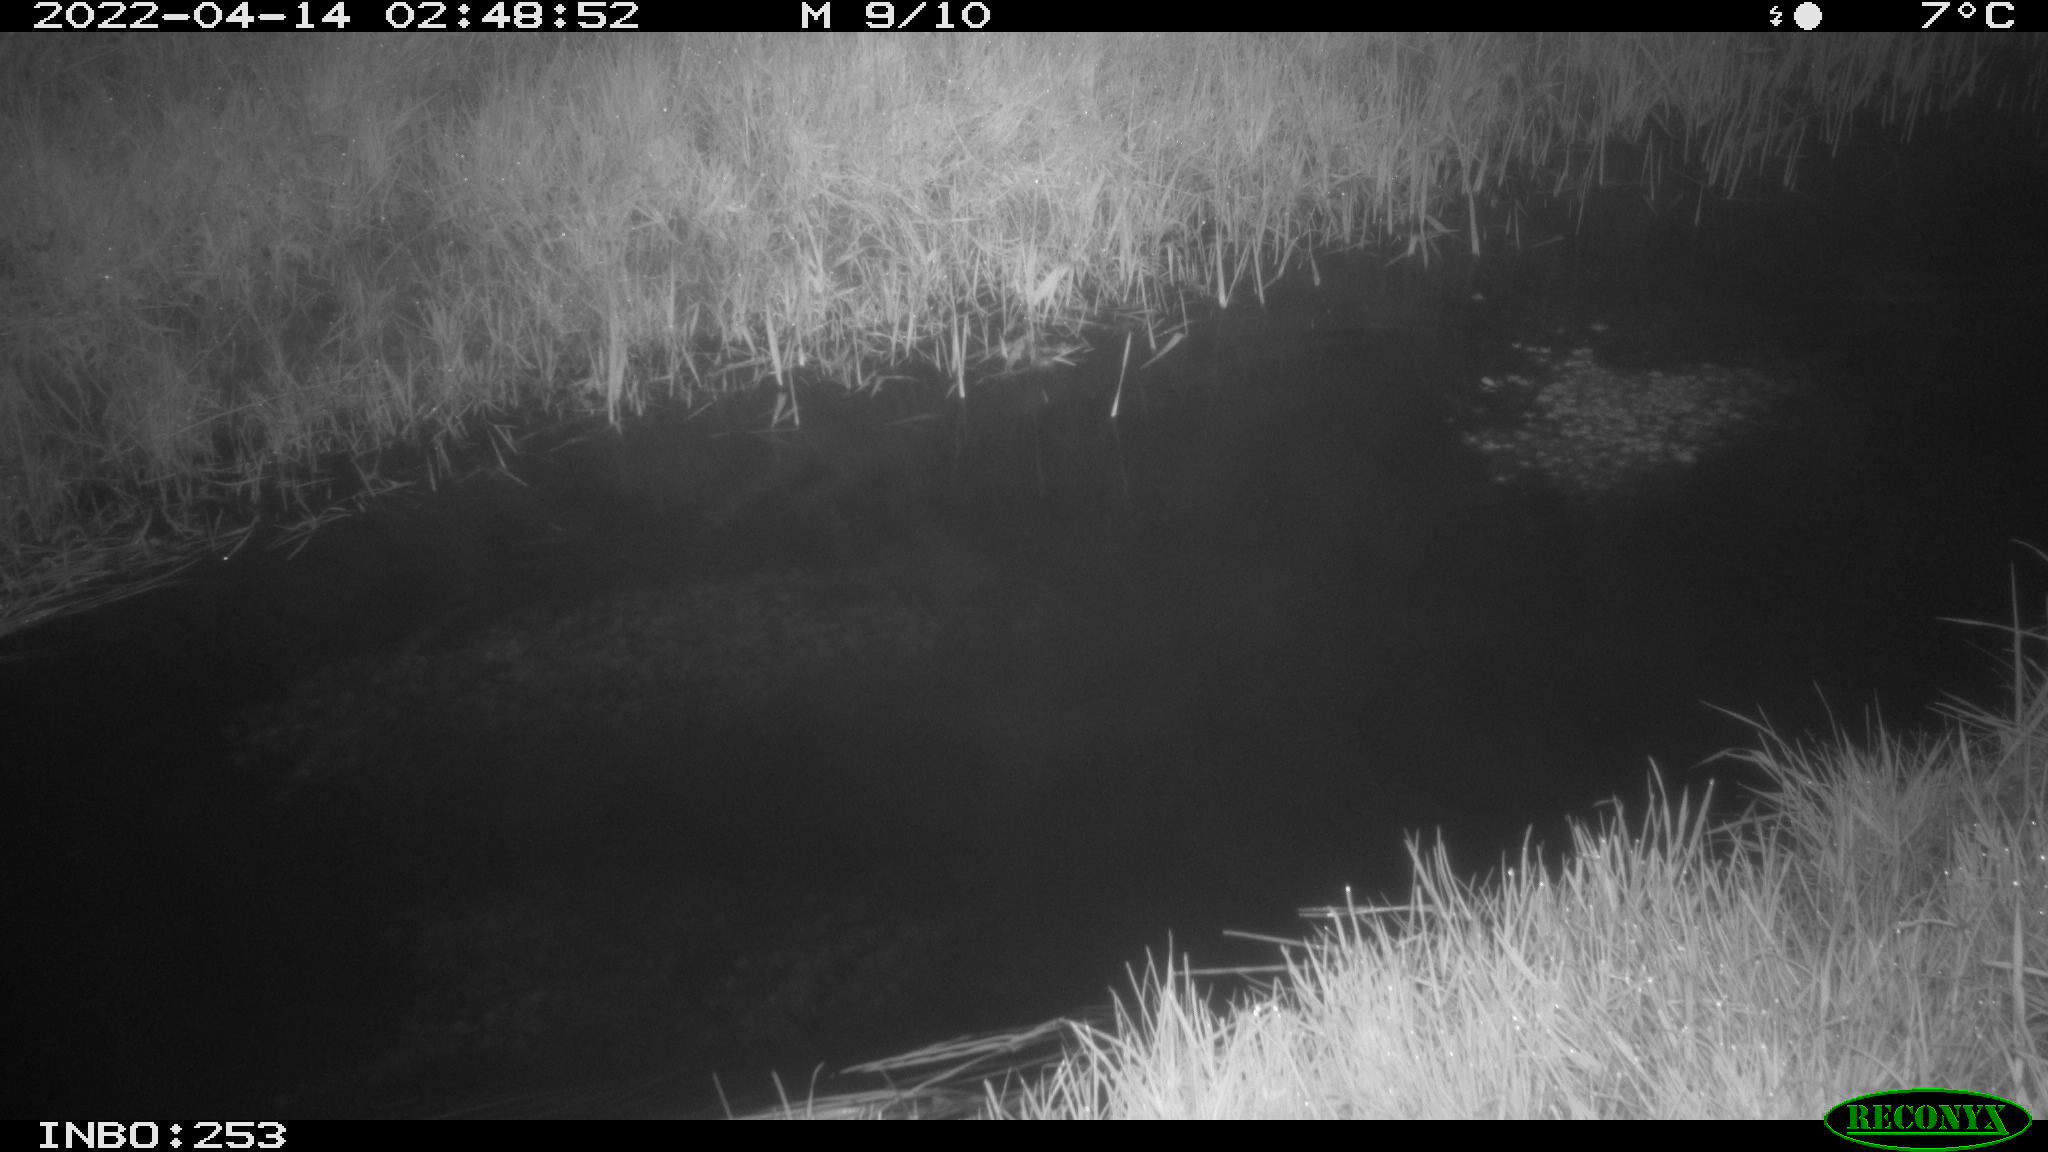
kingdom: Animalia
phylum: Chordata
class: Aves
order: Anseriformes
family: Anatidae
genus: Anas
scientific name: Anas platyrhynchos
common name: Mallard
